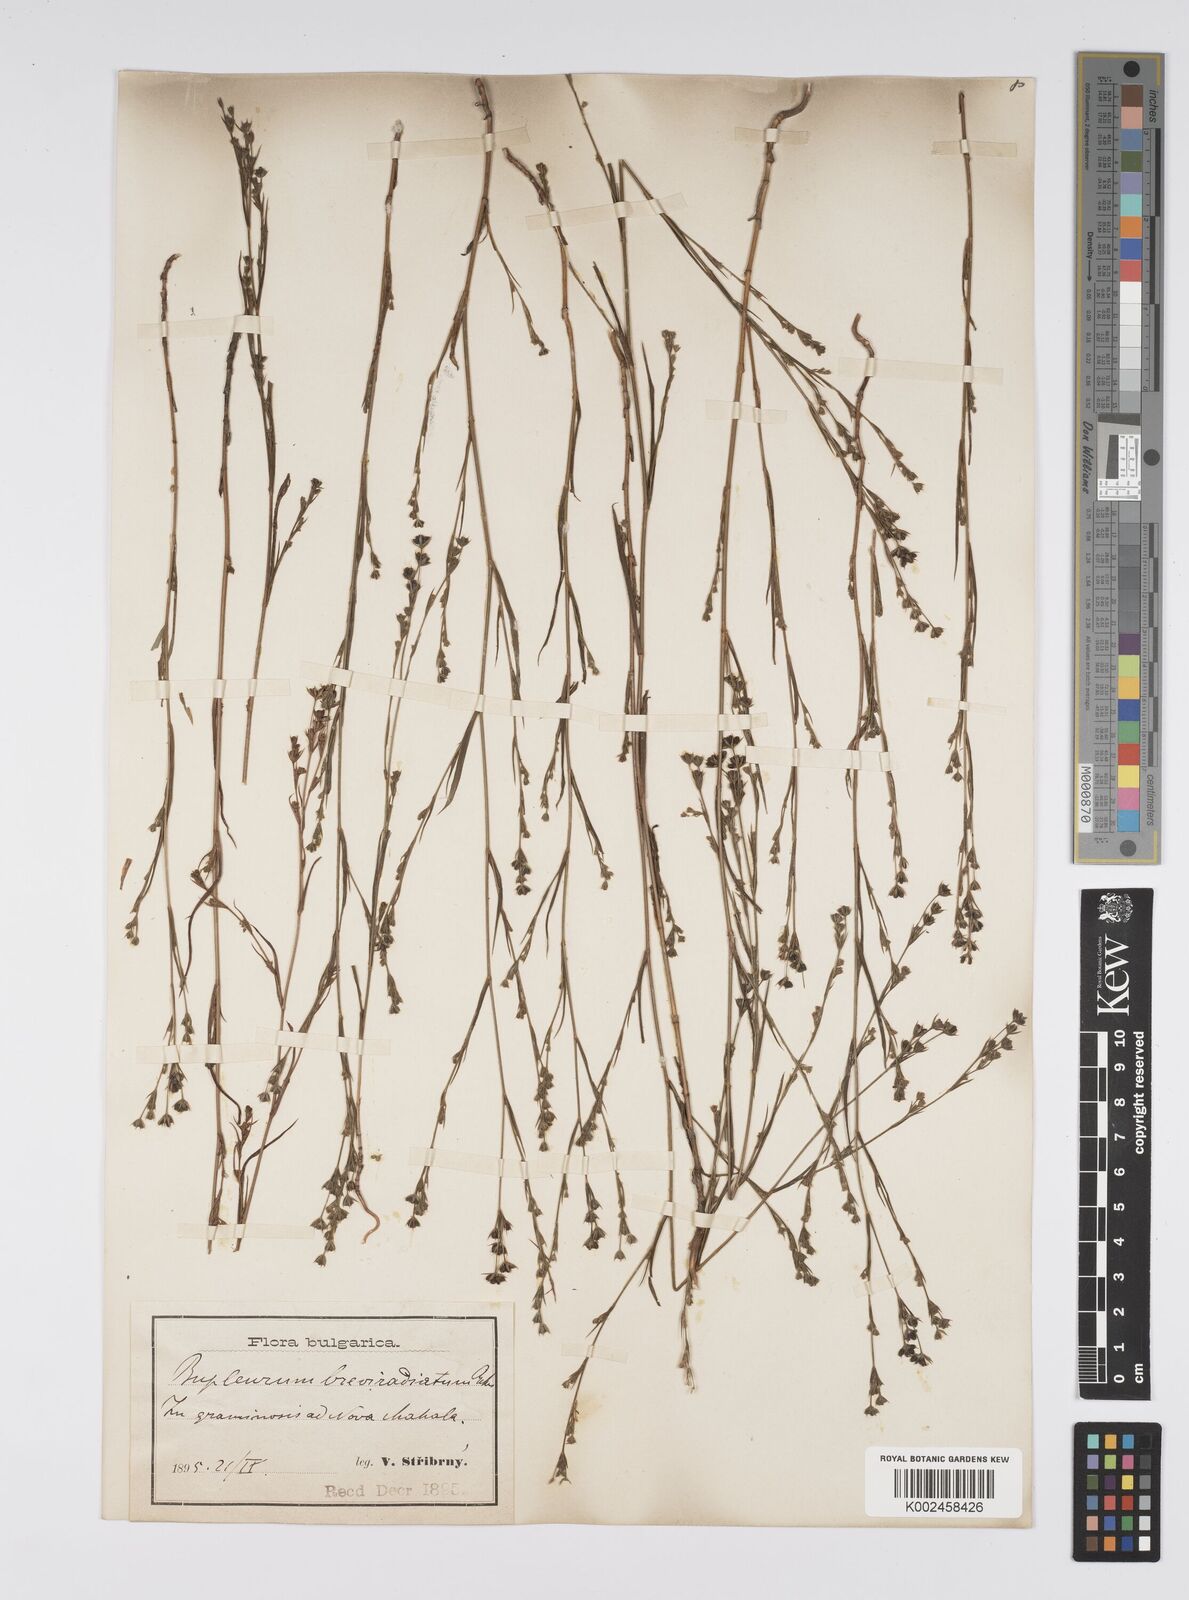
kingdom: Plantae
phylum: Tracheophyta
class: Magnoliopsida
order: Apiales
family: Apiaceae
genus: Bupleurum
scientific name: Bupleurum affine
